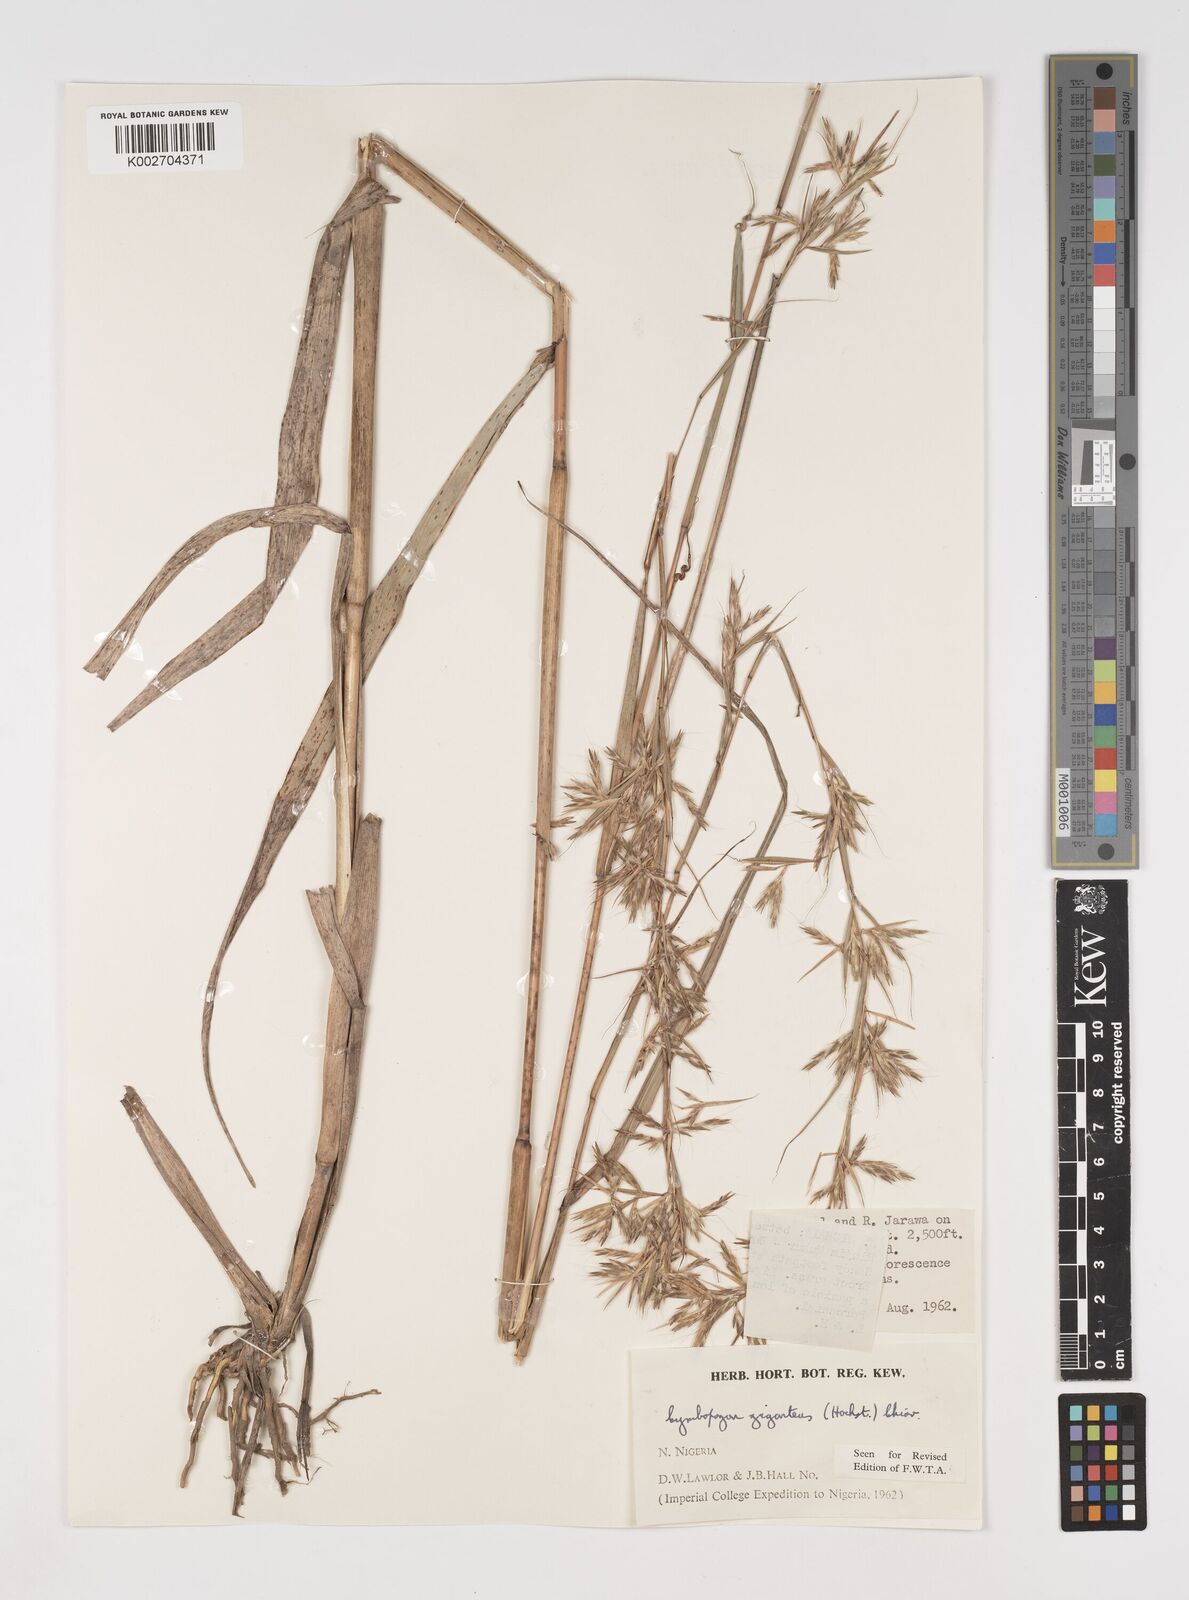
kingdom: Plantae
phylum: Tracheophyta
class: Liliopsida
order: Poales
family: Poaceae
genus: Cymbopogon
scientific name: Cymbopogon giganteus
